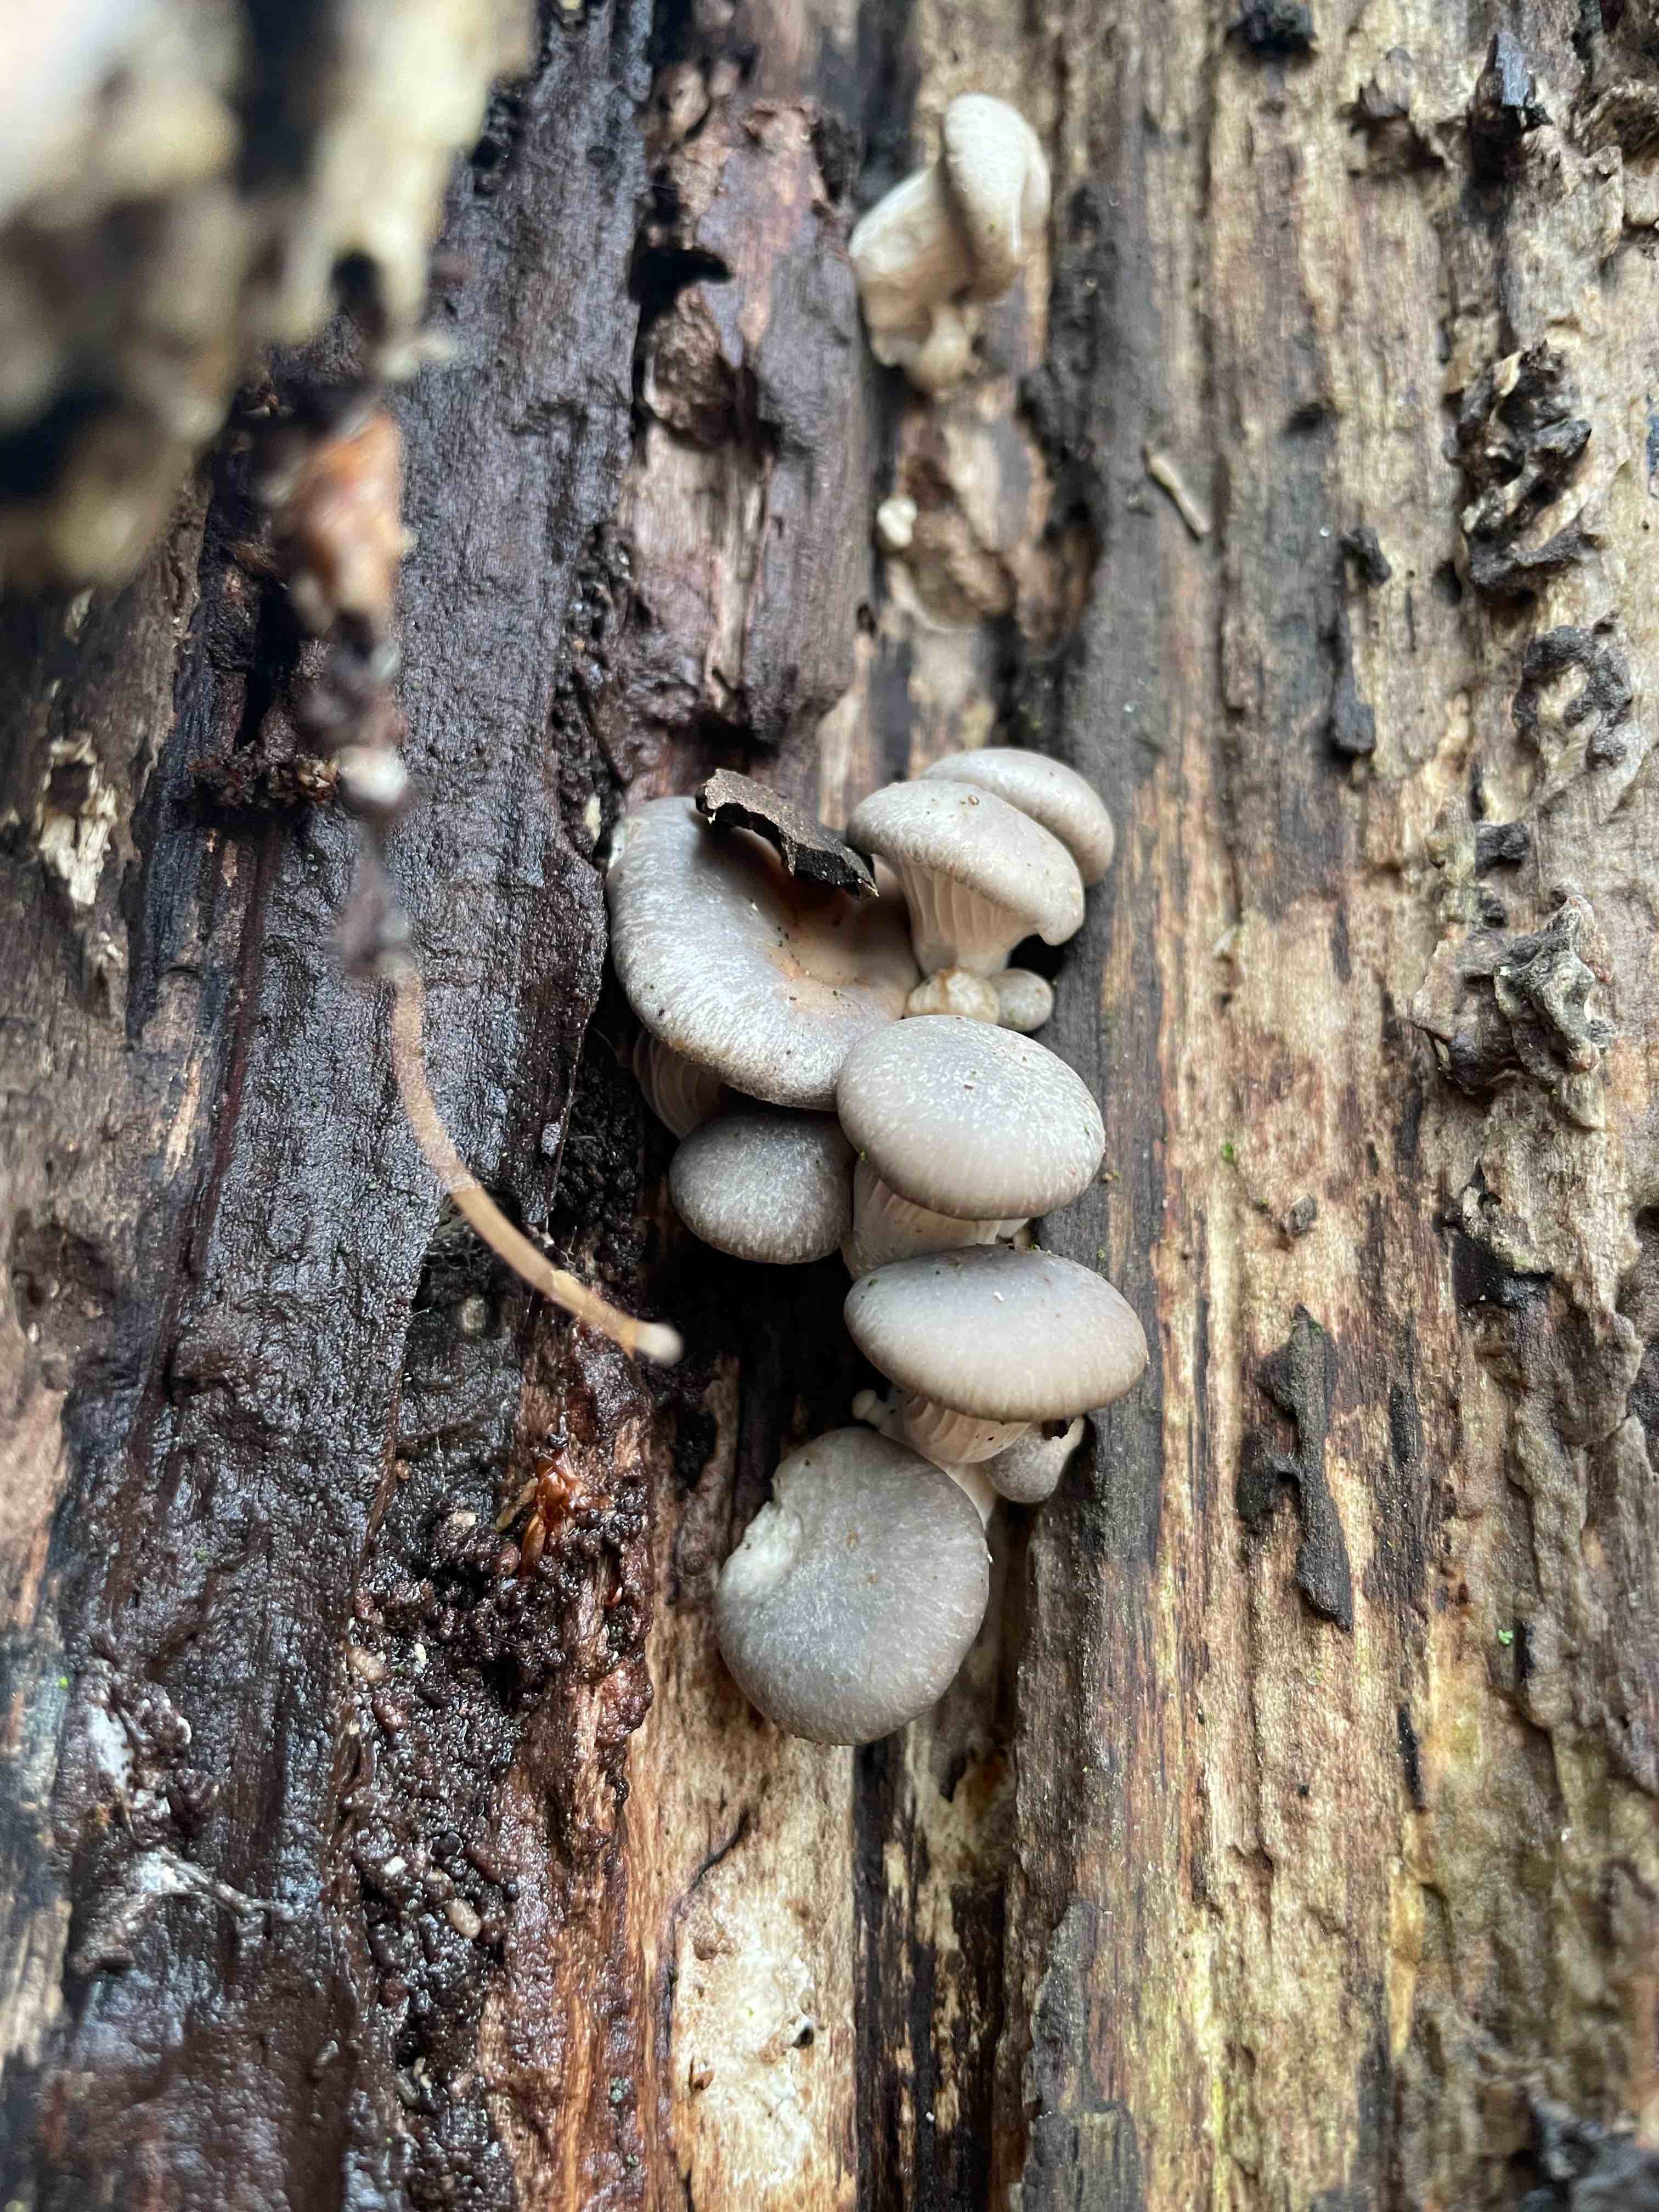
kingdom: Fungi
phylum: Basidiomycota
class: Agaricomycetes
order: Agaricales
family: Pleurotaceae
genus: Pleurotus
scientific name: Pleurotus ostreatus
